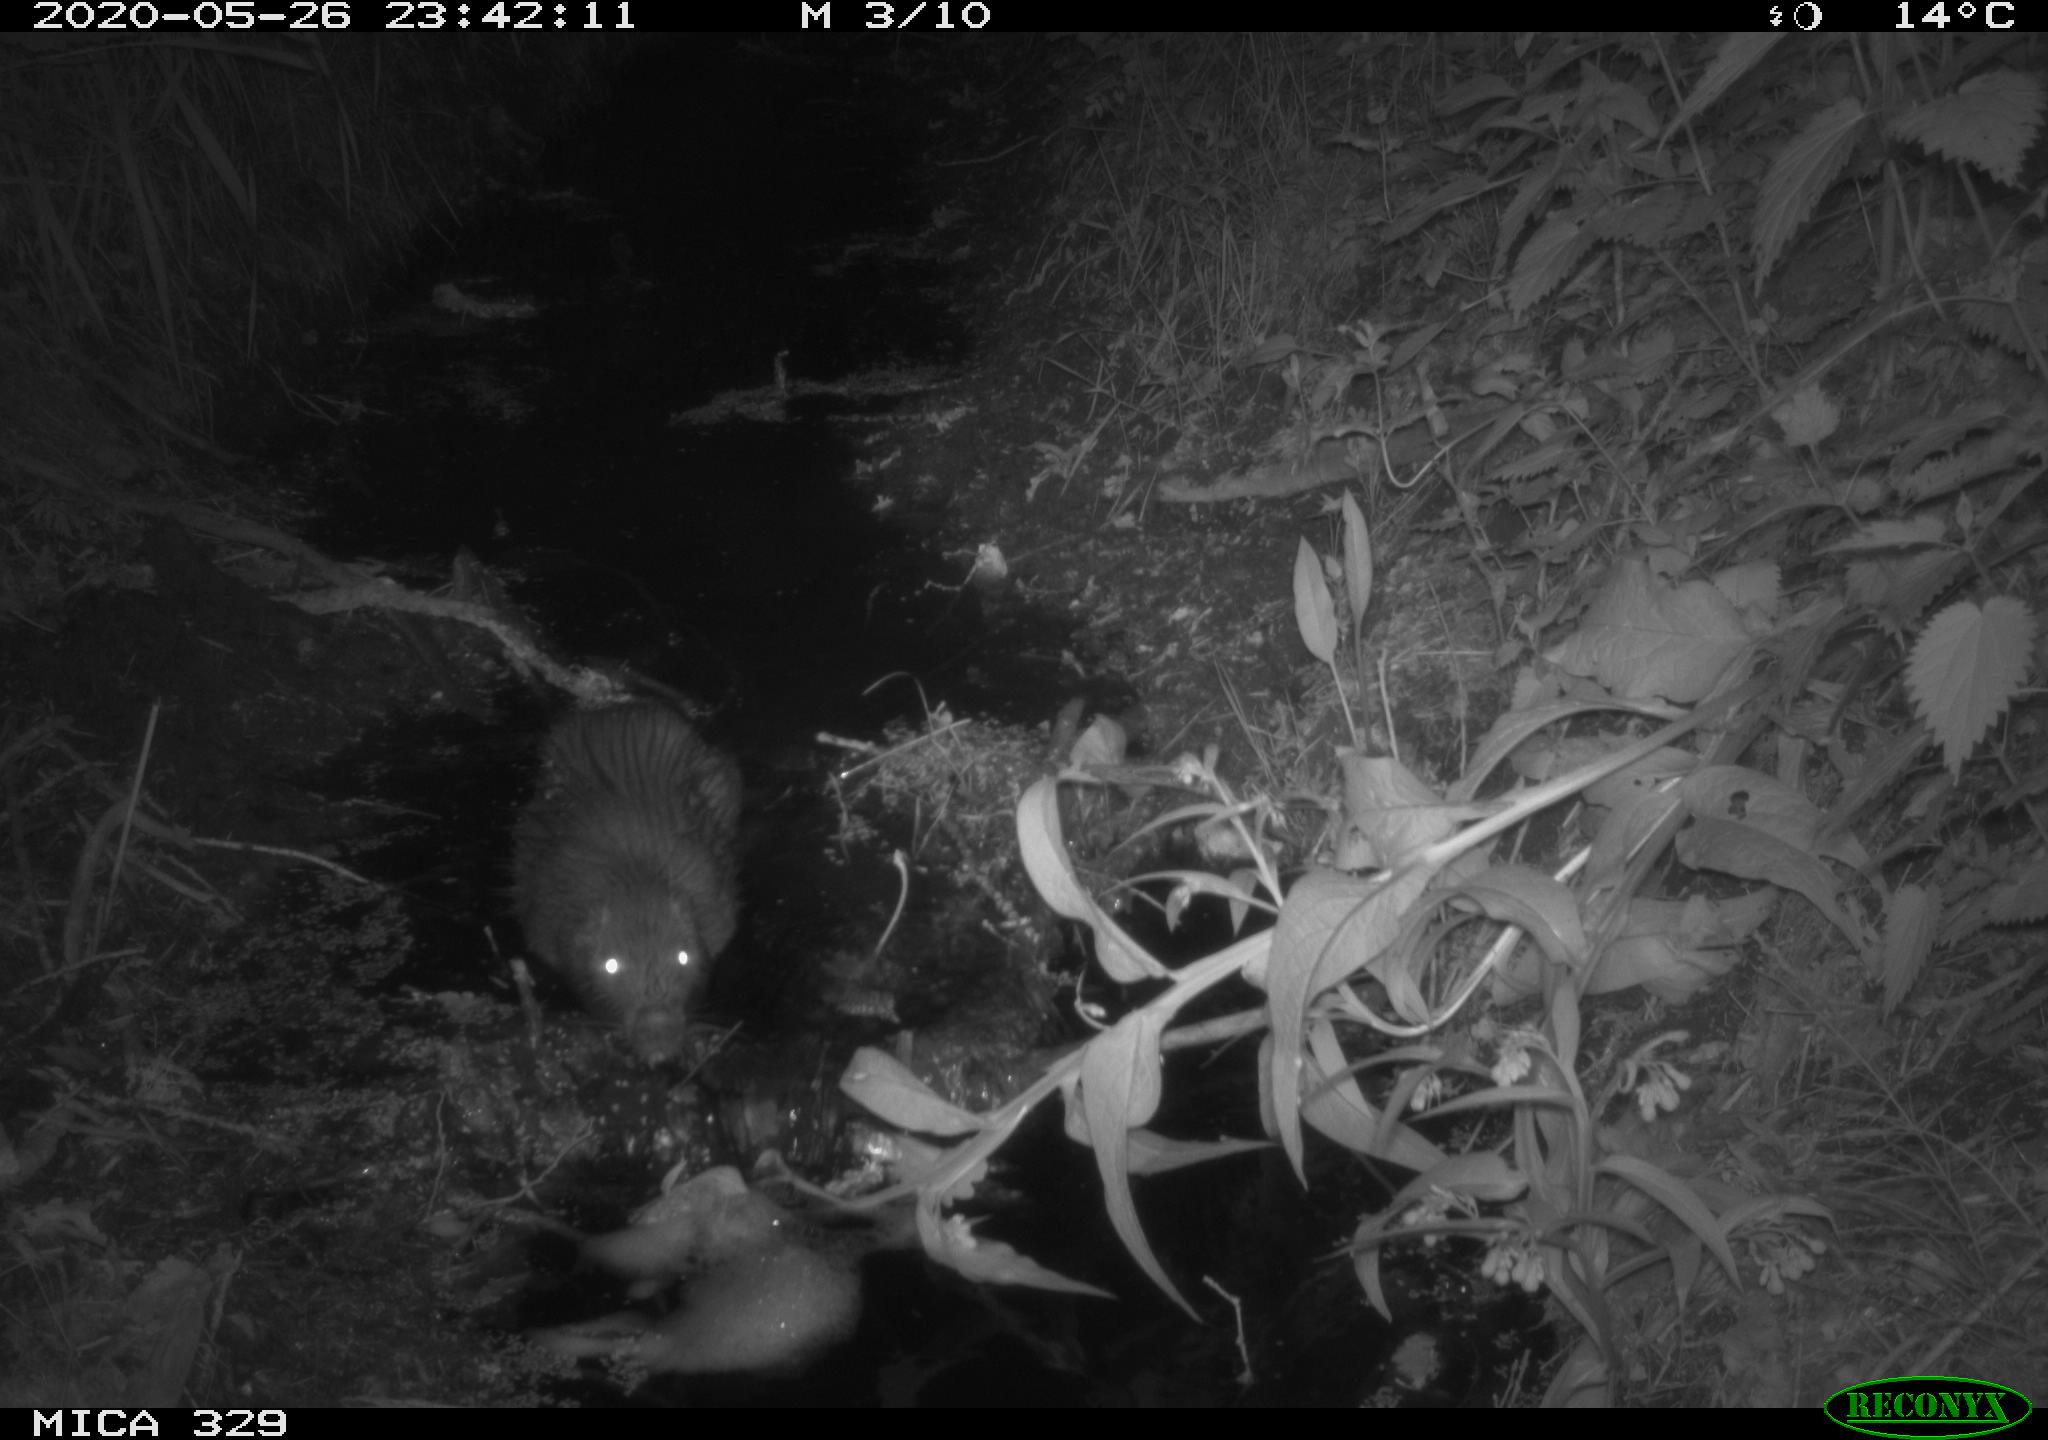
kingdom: Animalia
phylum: Chordata
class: Mammalia
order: Rodentia
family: Myocastoridae
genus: Myocastor
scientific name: Myocastor coypus
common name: Coypu
